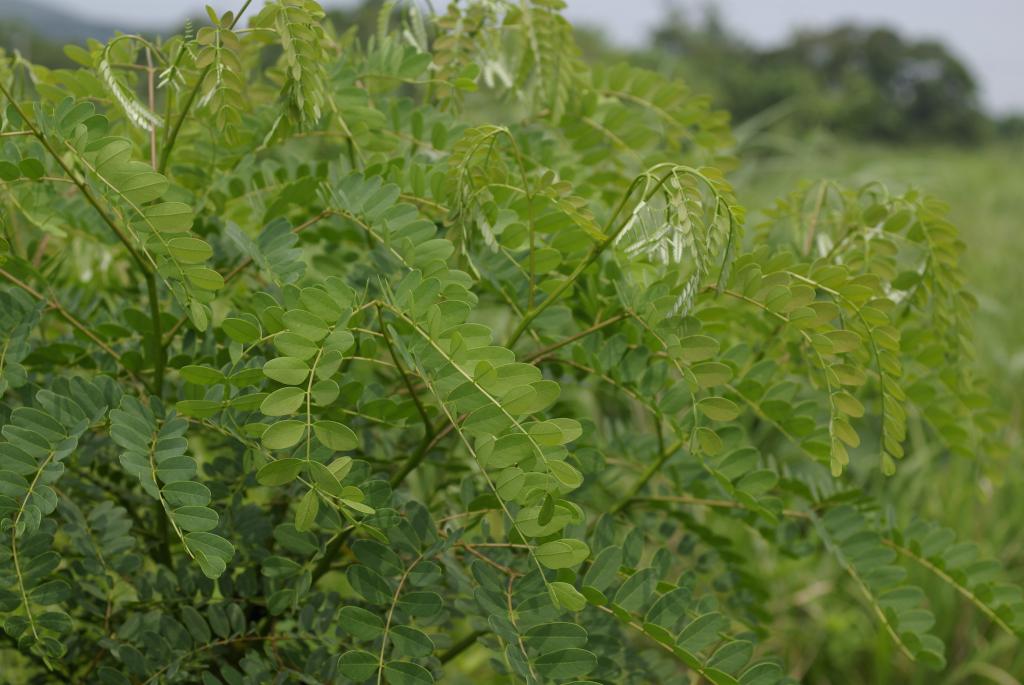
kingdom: Plantae
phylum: Tracheophyta
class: Magnoliopsida
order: Fabales
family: Fabaceae
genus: Albizia
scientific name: Albizia procera
